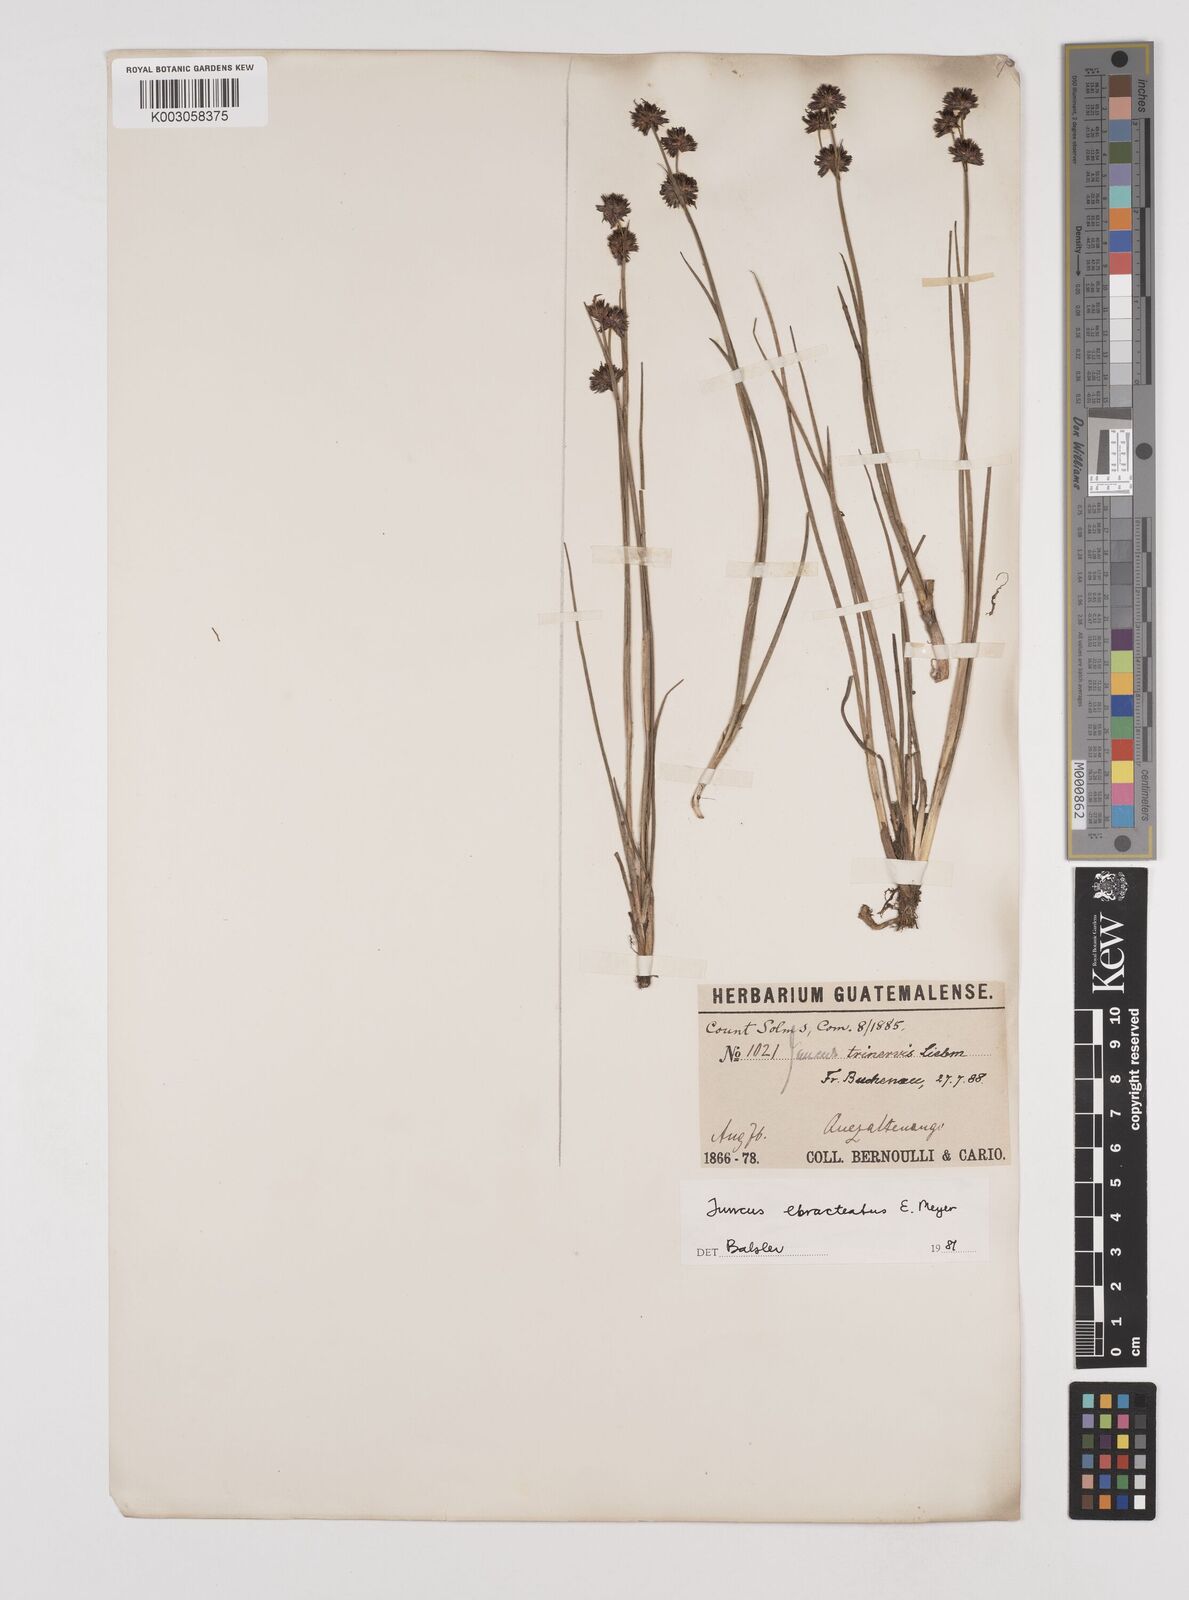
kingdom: Plantae
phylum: Tracheophyta
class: Liliopsida
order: Poales
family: Juncaceae
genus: Juncus
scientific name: Juncus ebracteatus
